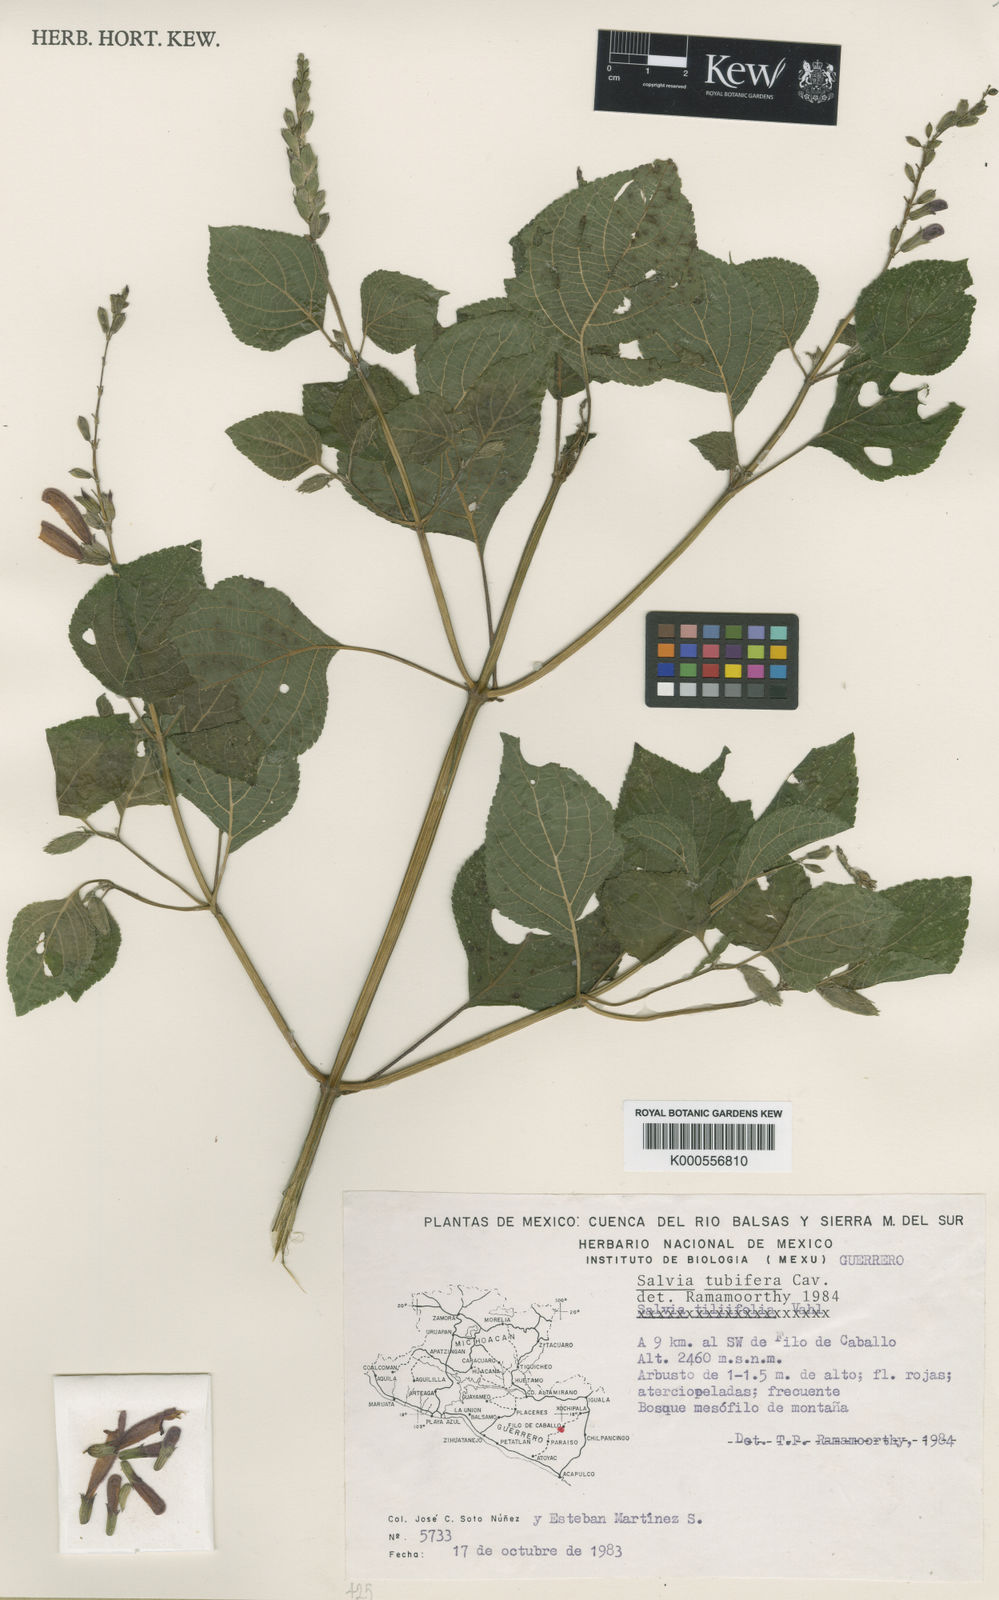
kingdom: Plantae
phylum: Tracheophyta
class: Magnoliopsida
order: Lamiales
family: Lamiaceae
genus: Salvia
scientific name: Salvia tubifera
